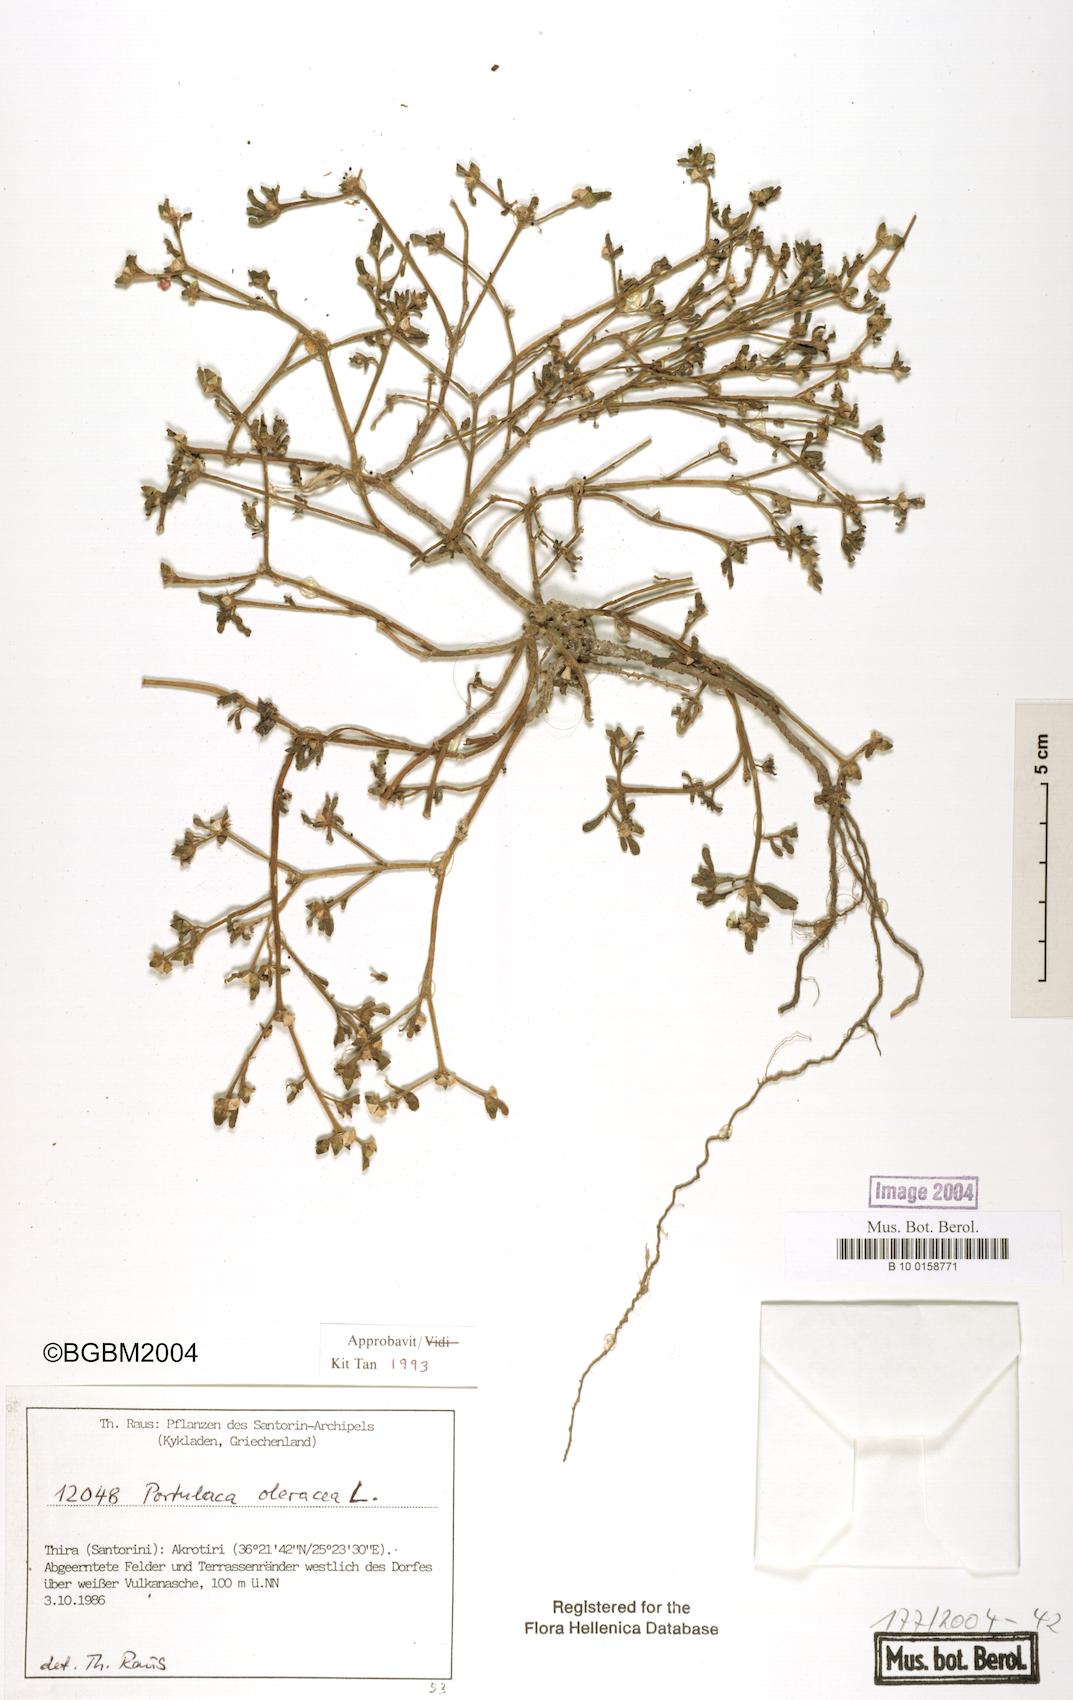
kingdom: Plantae
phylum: Tracheophyta
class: Magnoliopsida
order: Caryophyllales
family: Portulacaceae
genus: Portulaca
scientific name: Portulaca oleracea
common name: Common purslane
